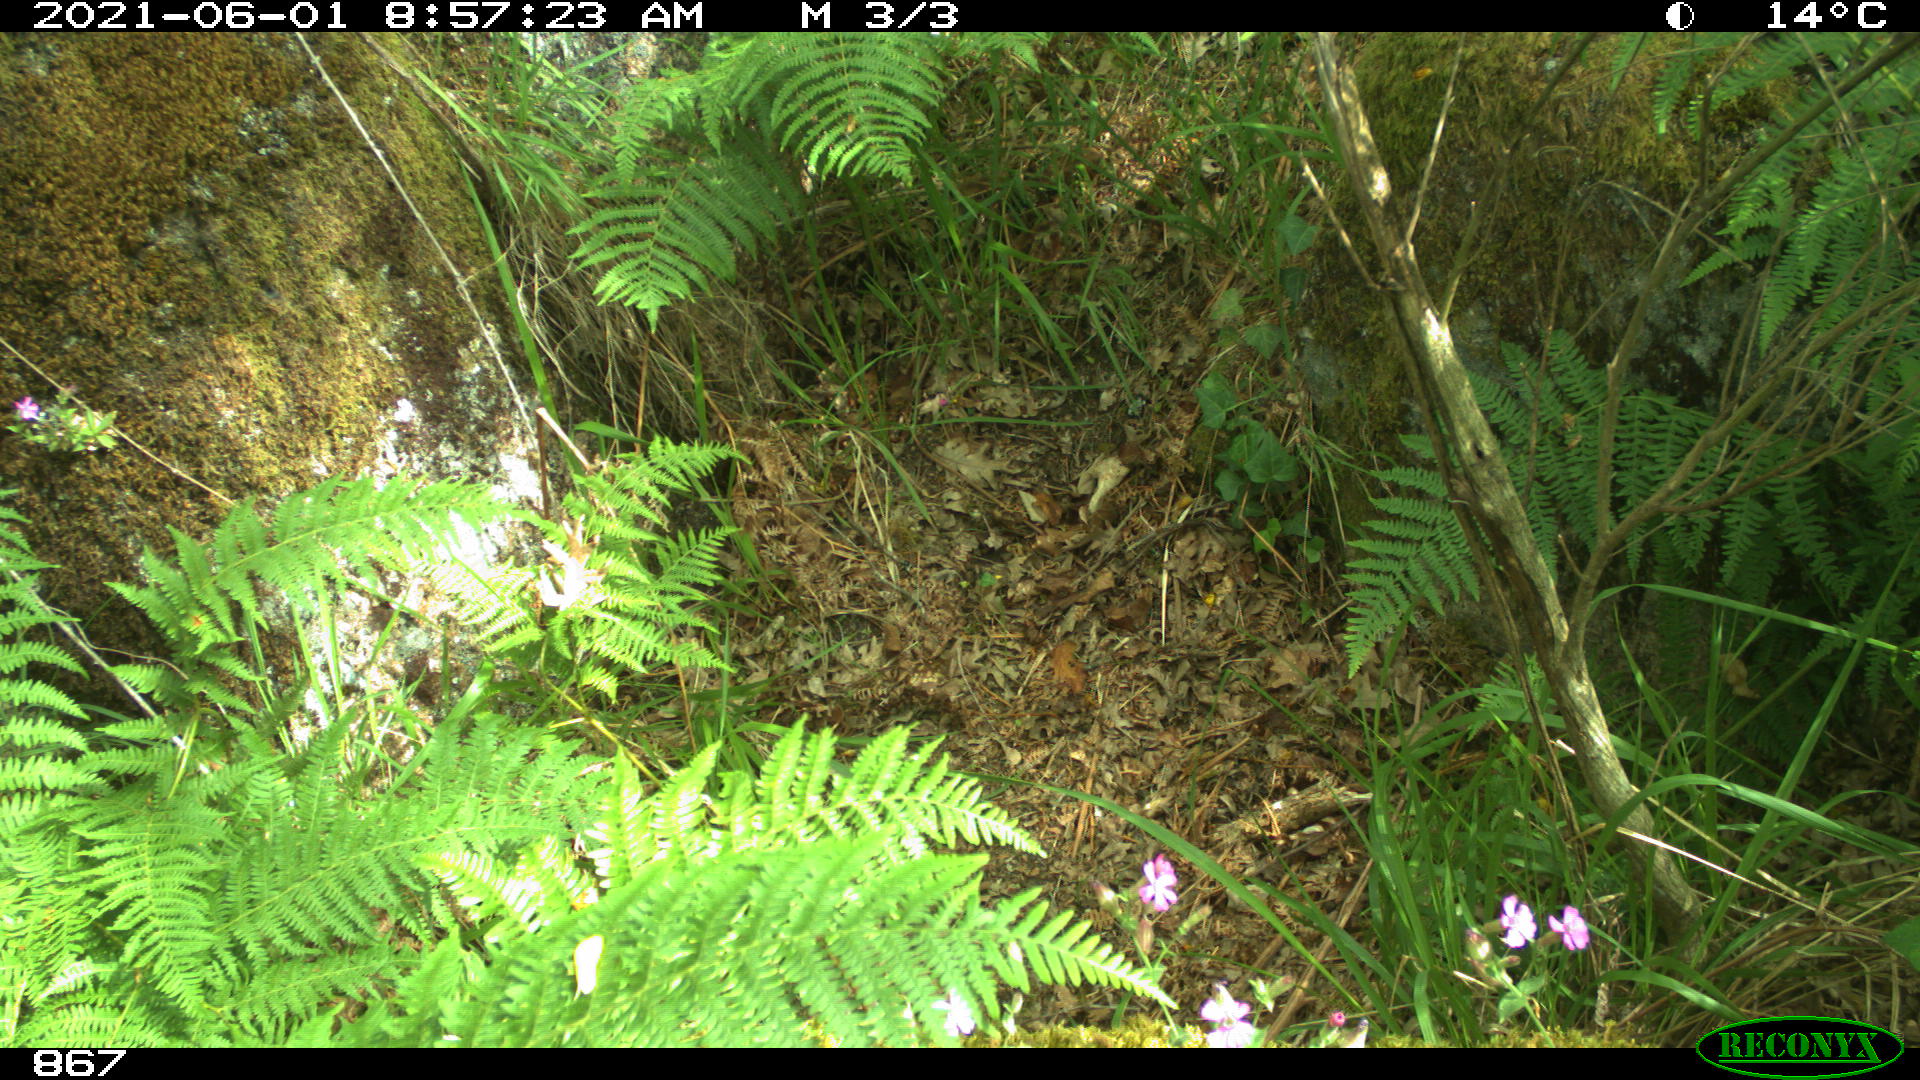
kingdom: Animalia
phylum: Chordata
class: Mammalia
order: Carnivora
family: Canidae
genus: Vulpes
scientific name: Vulpes vulpes
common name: Red fox
